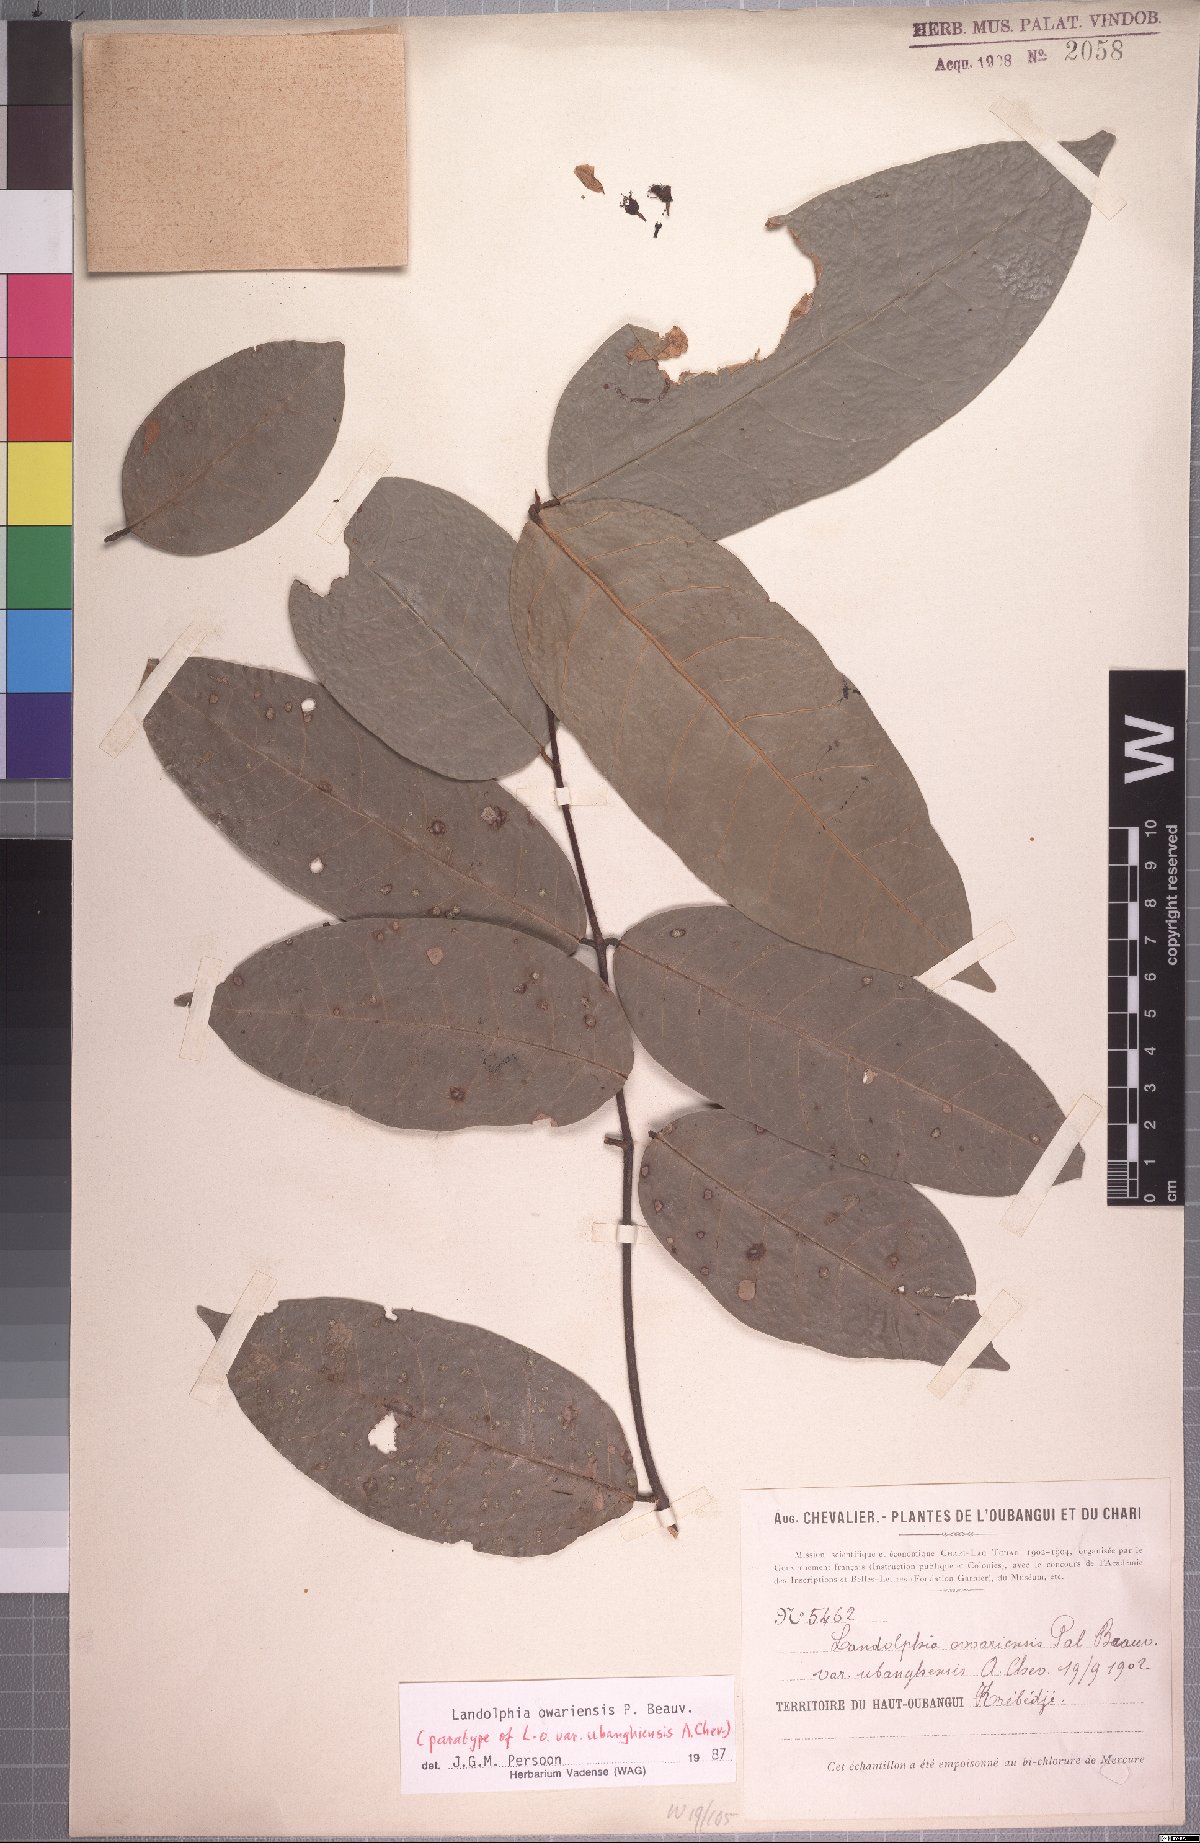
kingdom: Plantae
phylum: Tracheophyta
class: Magnoliopsida
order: Gentianales
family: Apocynaceae
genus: Landolphia
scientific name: Landolphia owariensis
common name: White-ball-rubber
